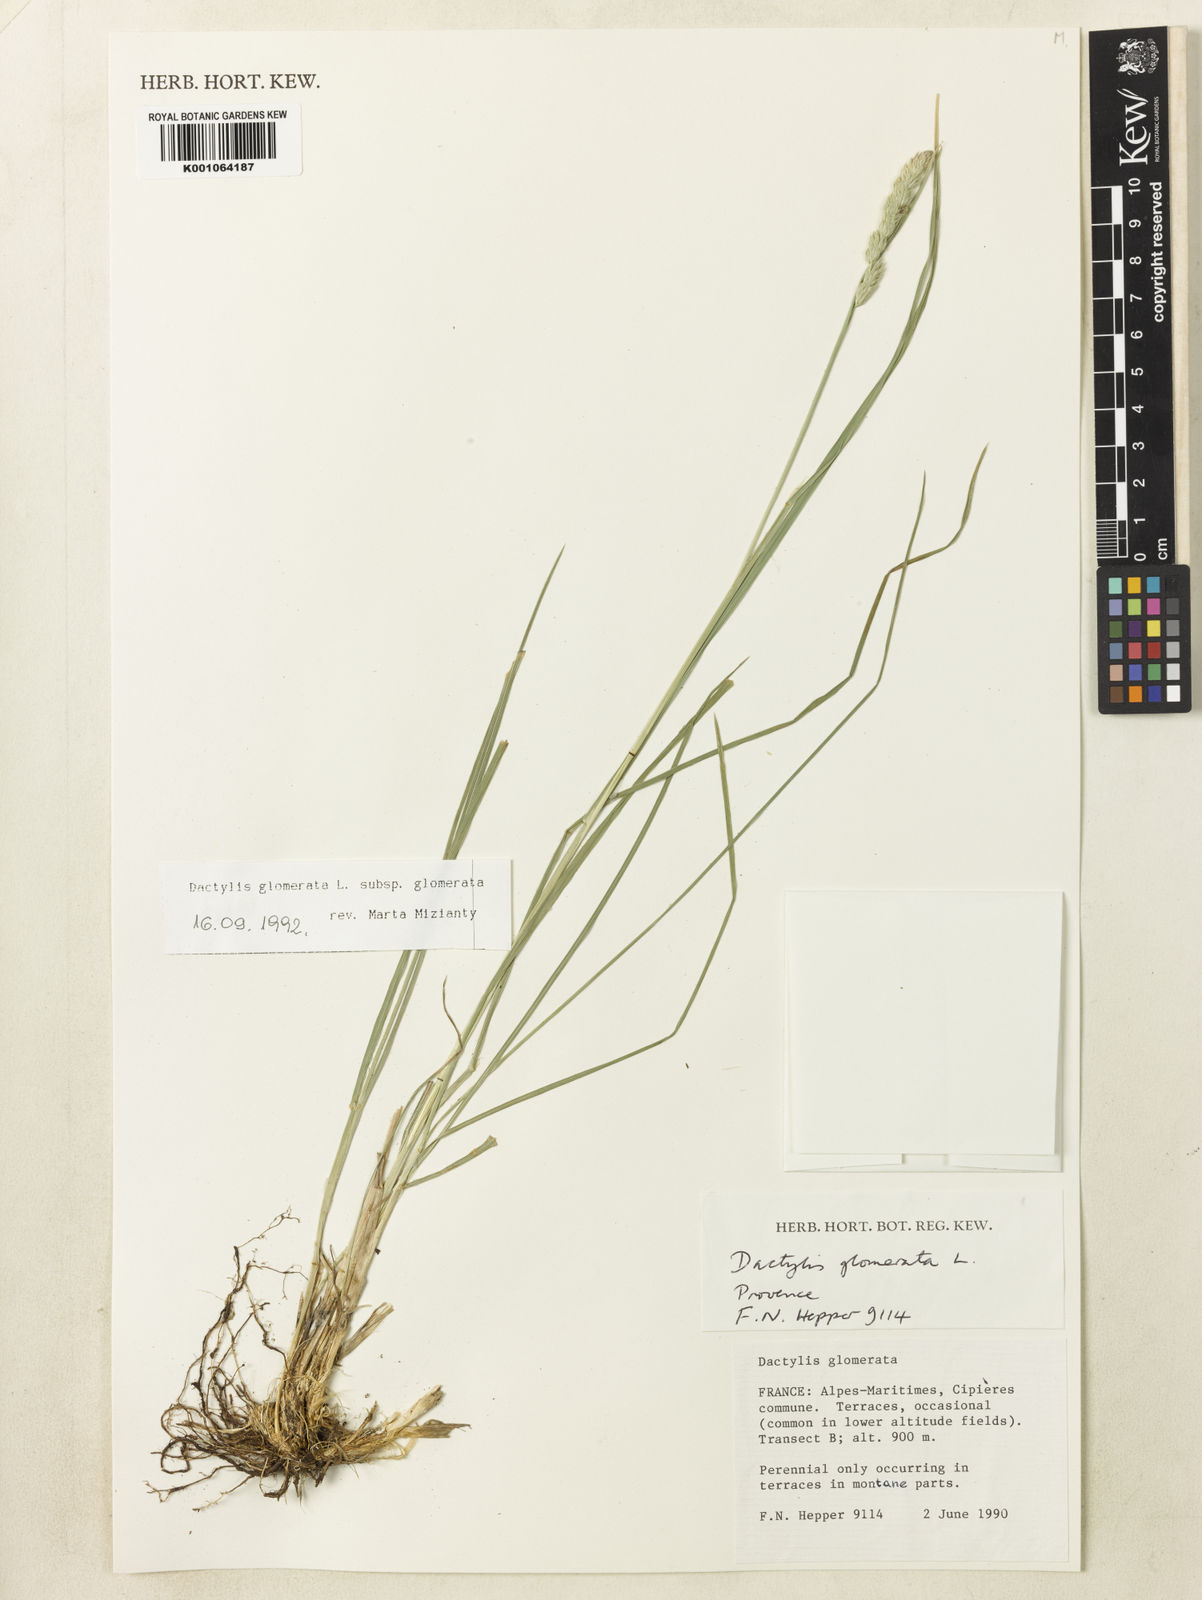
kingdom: Plantae
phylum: Tracheophyta
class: Liliopsida
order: Poales
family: Poaceae
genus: Dactylis
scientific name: Dactylis glomerata
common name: Orchardgrass
